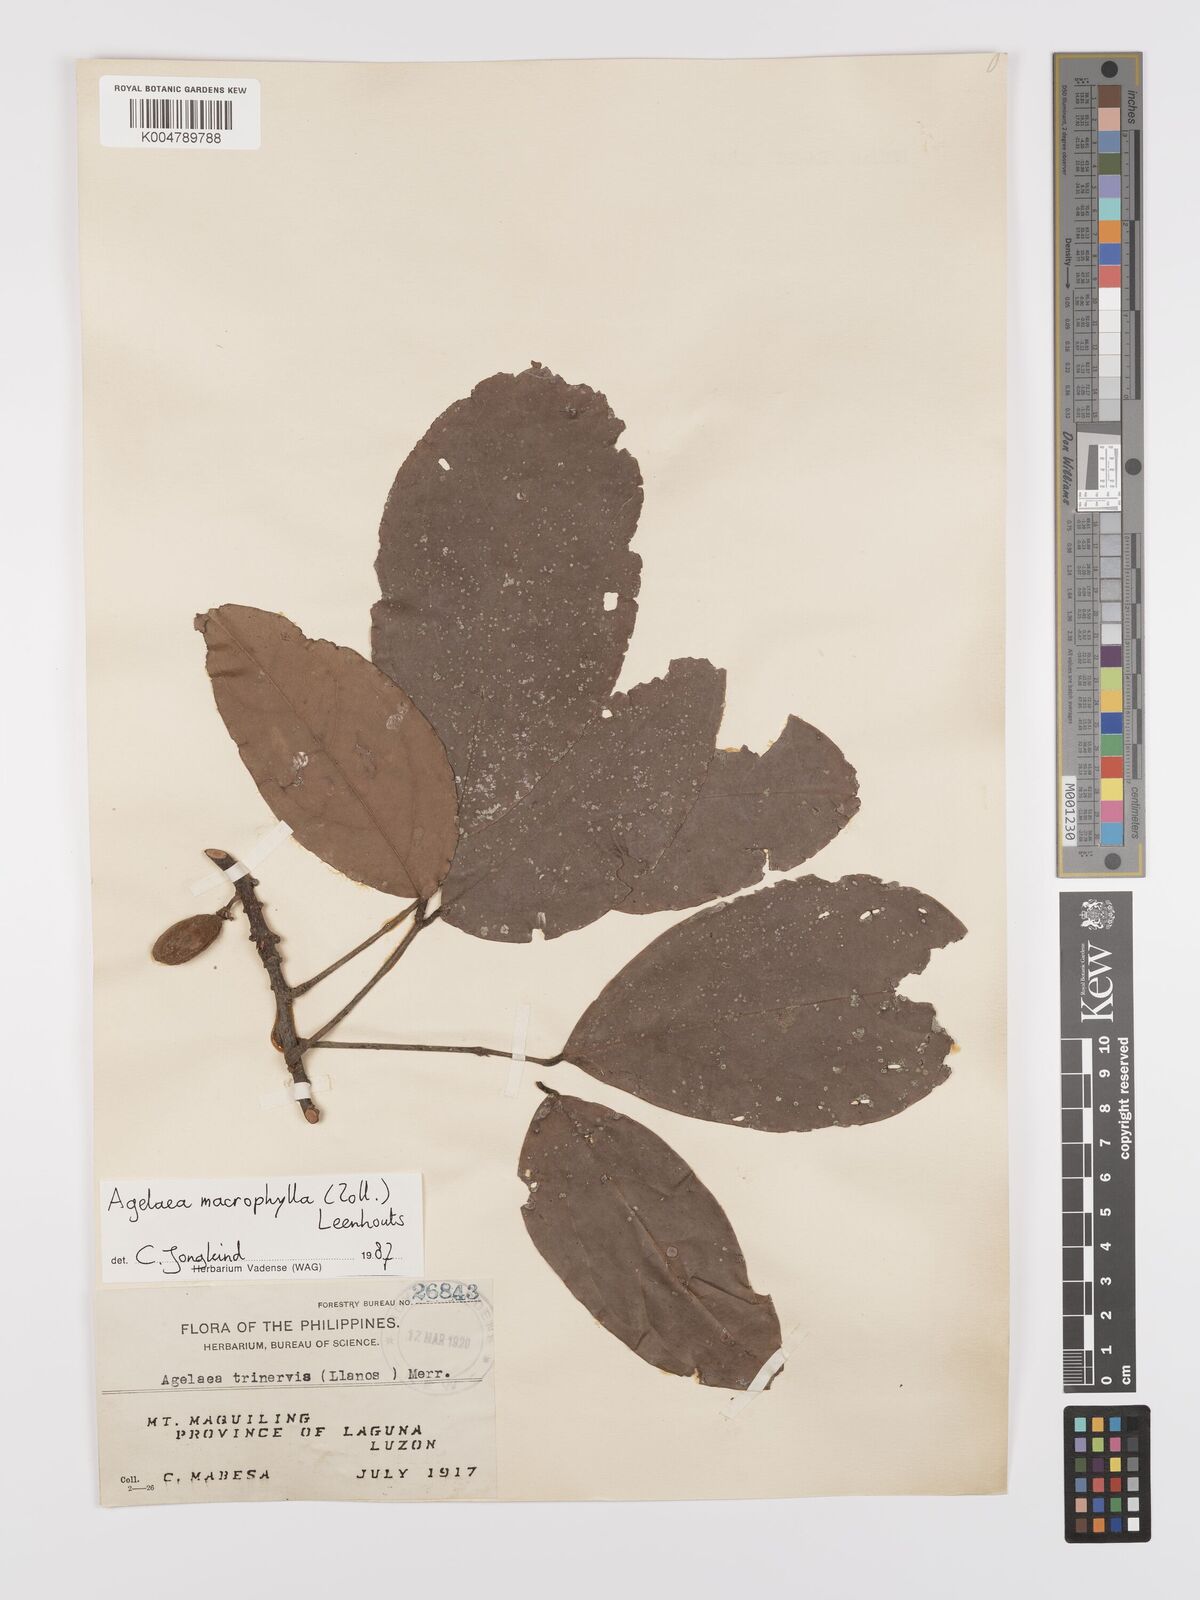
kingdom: Plantae
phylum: Tracheophyta
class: Magnoliopsida
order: Oxalidales
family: Connaraceae
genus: Agelaea
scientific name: Agelaea trinervis
